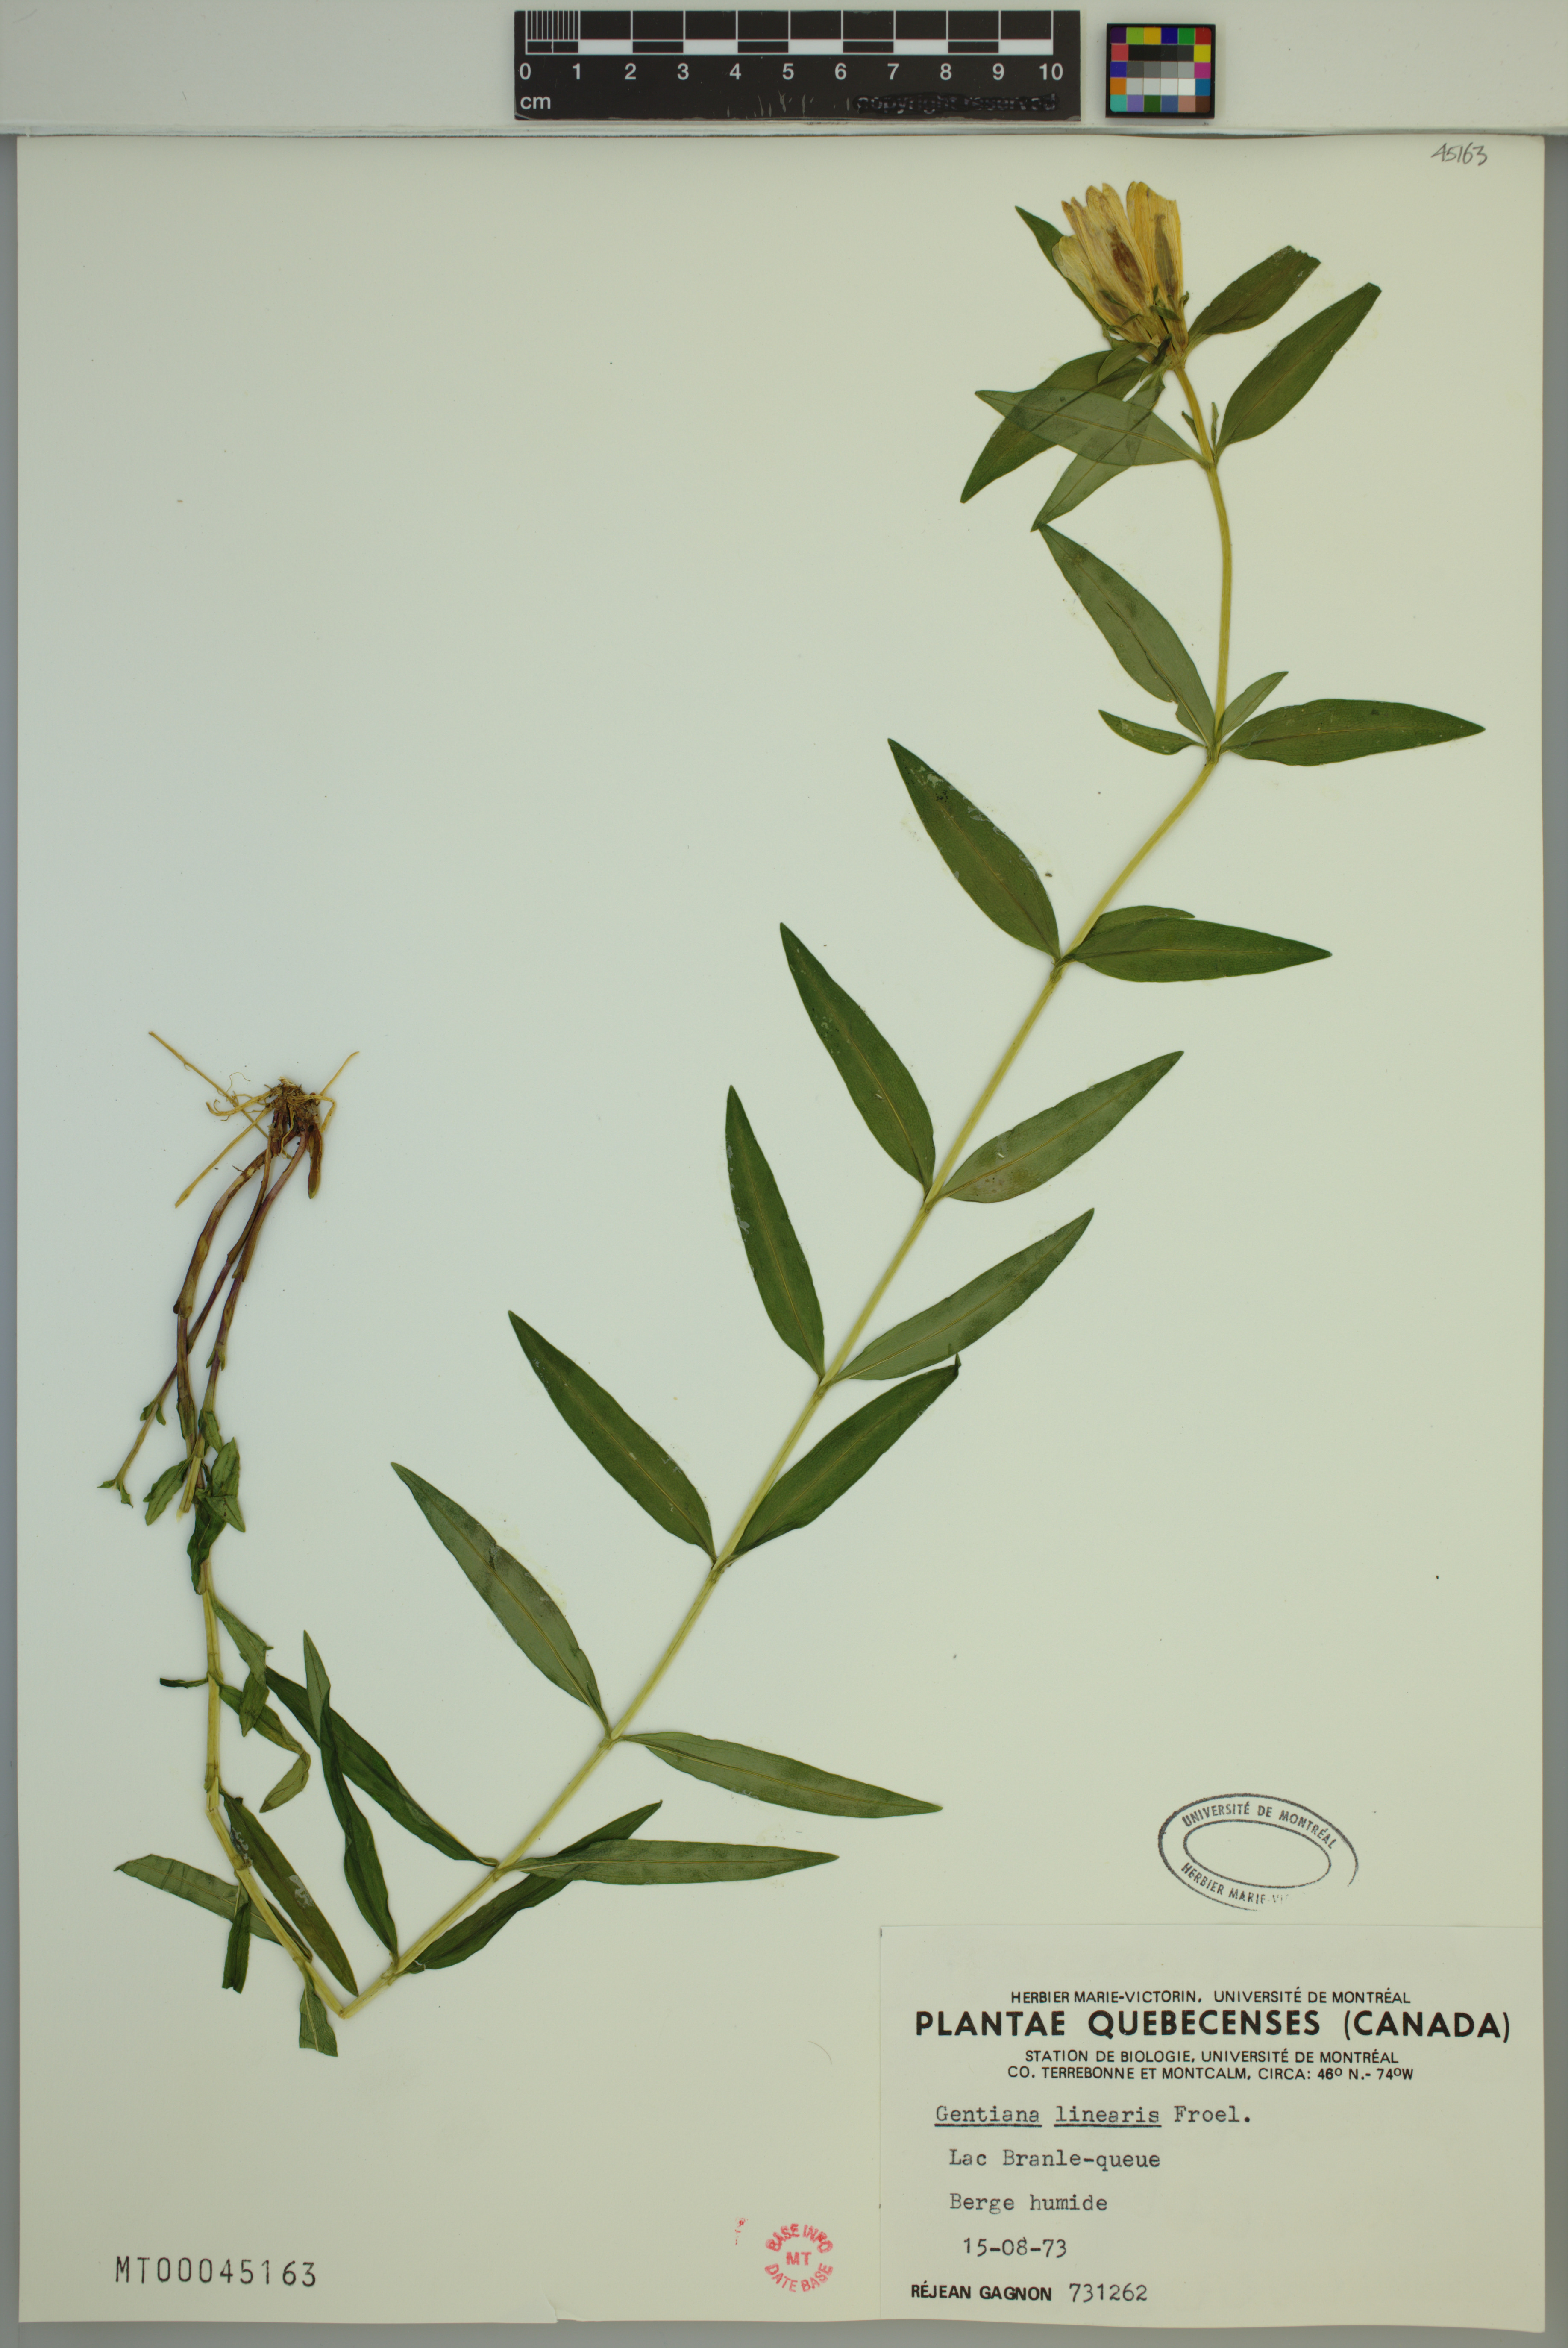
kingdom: Plantae
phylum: Tracheophyta
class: Magnoliopsida
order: Gentianales
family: Gentianaceae
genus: Gentiana
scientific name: Gentiana linearis
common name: Bastard gentian
